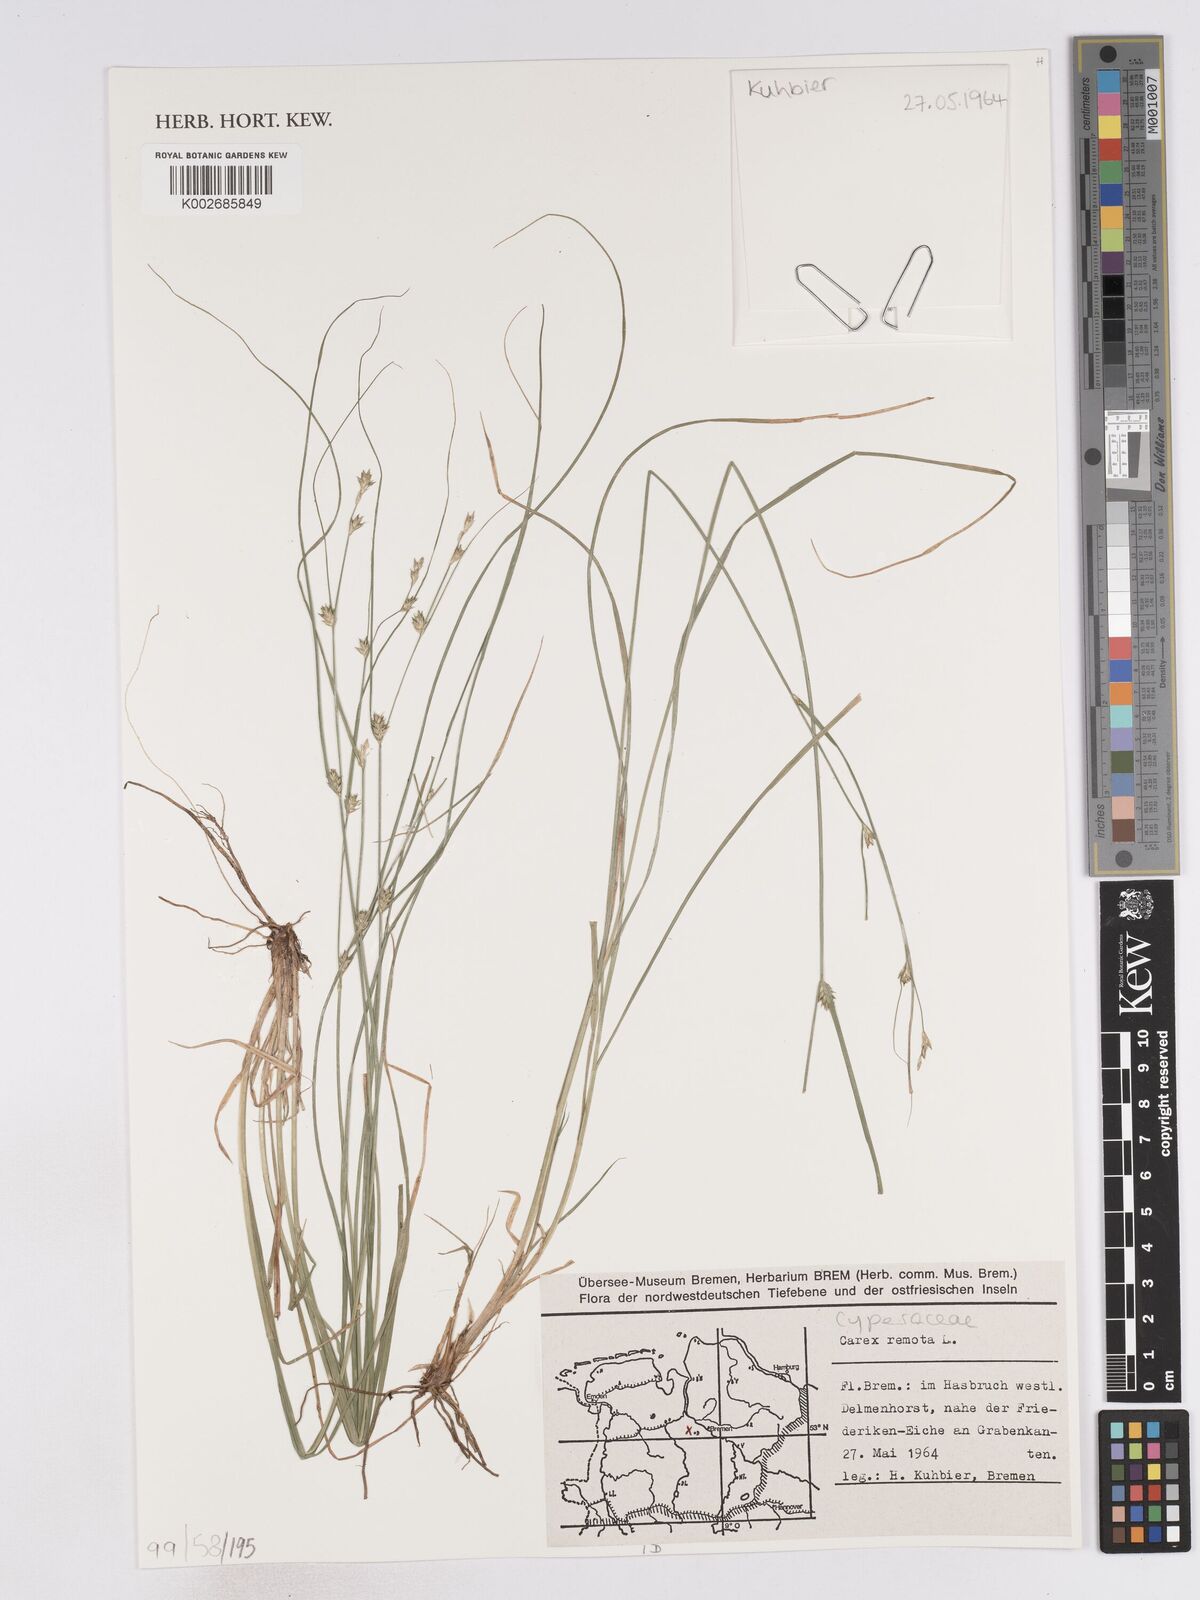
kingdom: Plantae
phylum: Tracheophyta
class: Liliopsida
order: Poales
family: Cyperaceae
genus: Carex
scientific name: Carex remota
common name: Remote sedge
